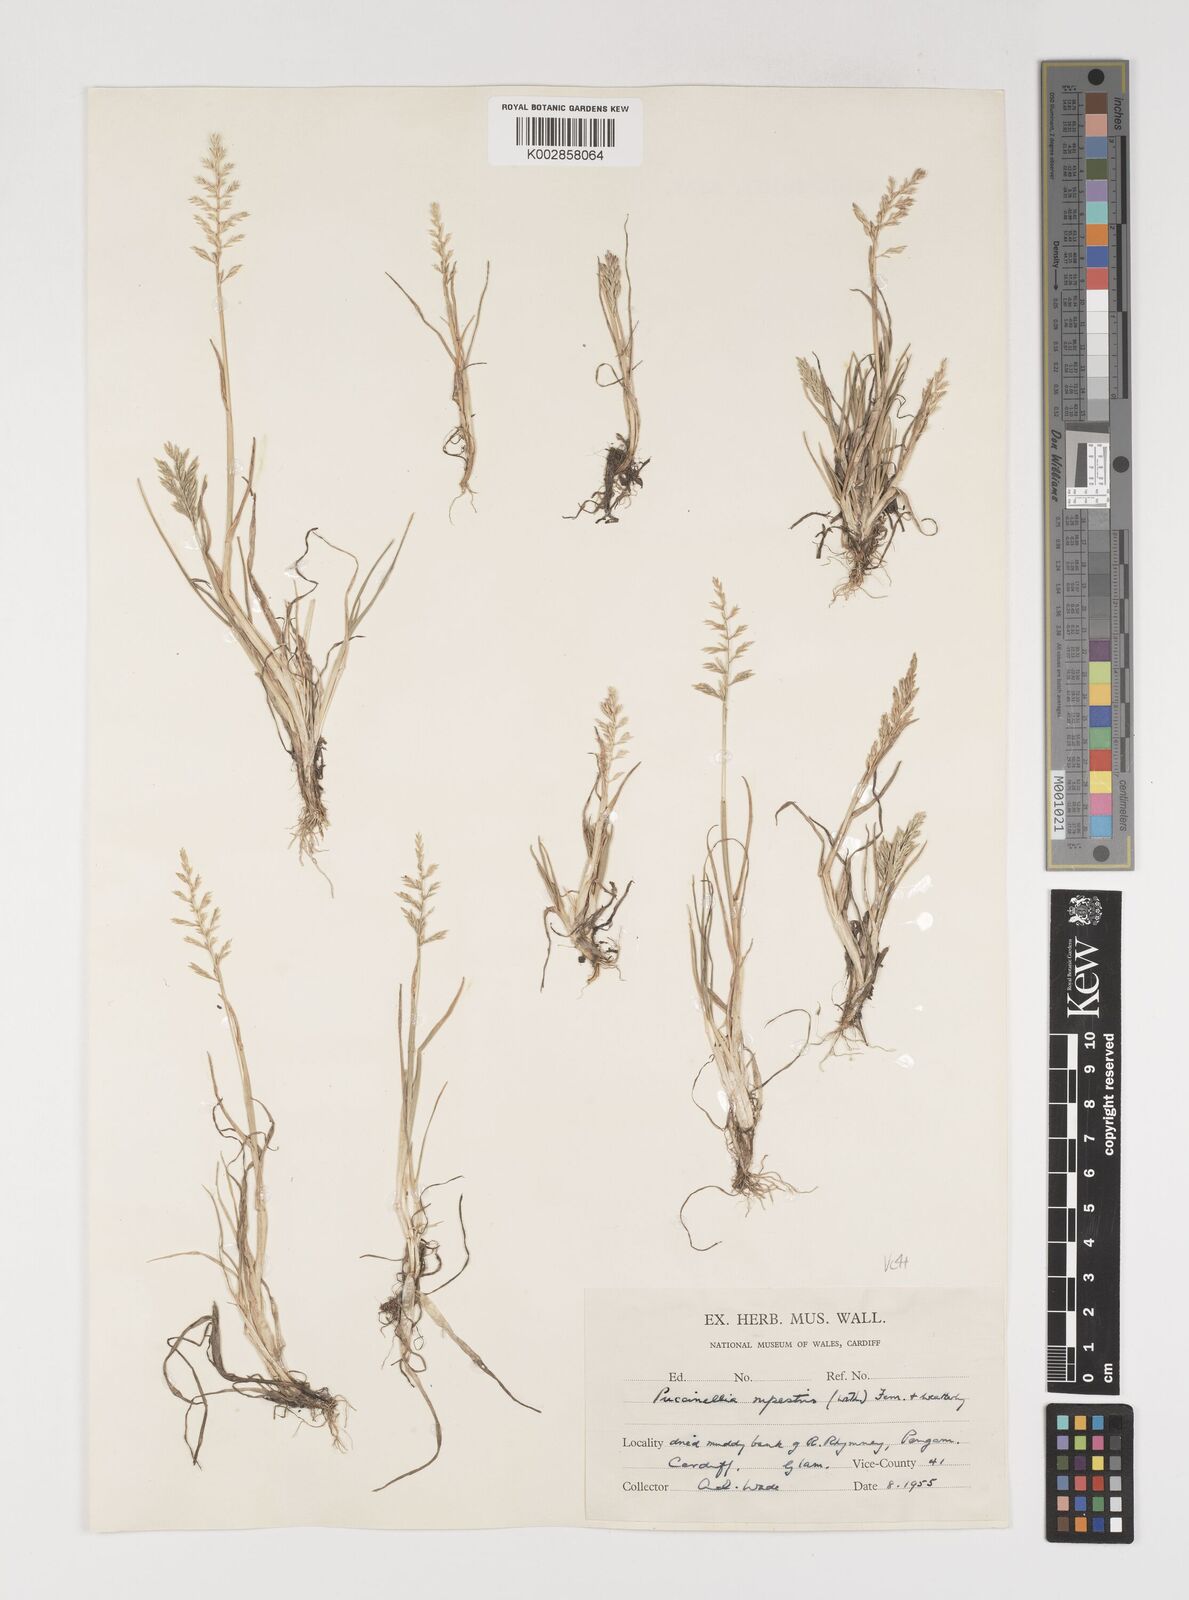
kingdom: Plantae
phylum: Tracheophyta
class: Liliopsida
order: Poales
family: Poaceae
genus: Puccinellia
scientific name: Puccinellia rupestris
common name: Stiff saltmarsh-grass
